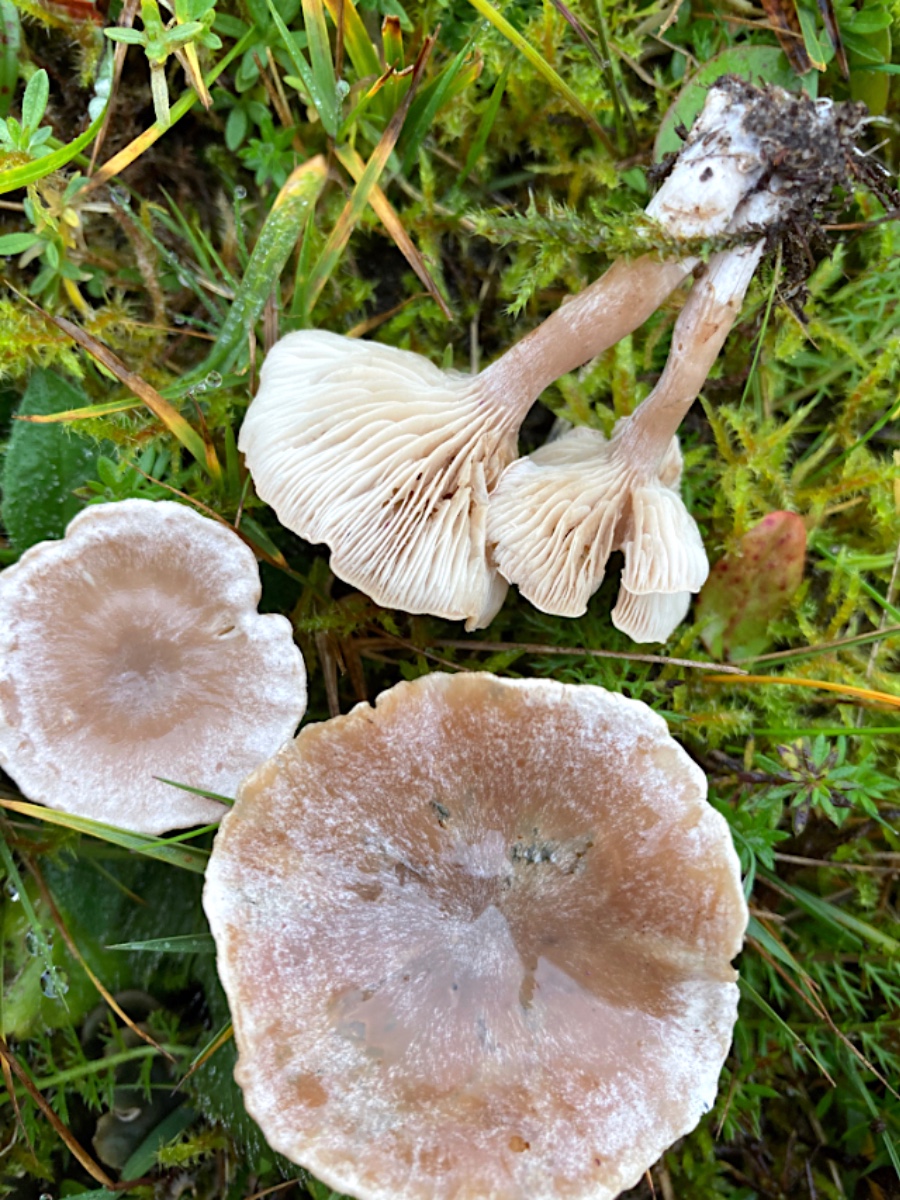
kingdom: Fungi
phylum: Basidiomycota
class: Agaricomycetes
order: Agaricales
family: Tricholomataceae
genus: Clitocybe
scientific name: Clitocybe rivulosa
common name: eng-tragthat
